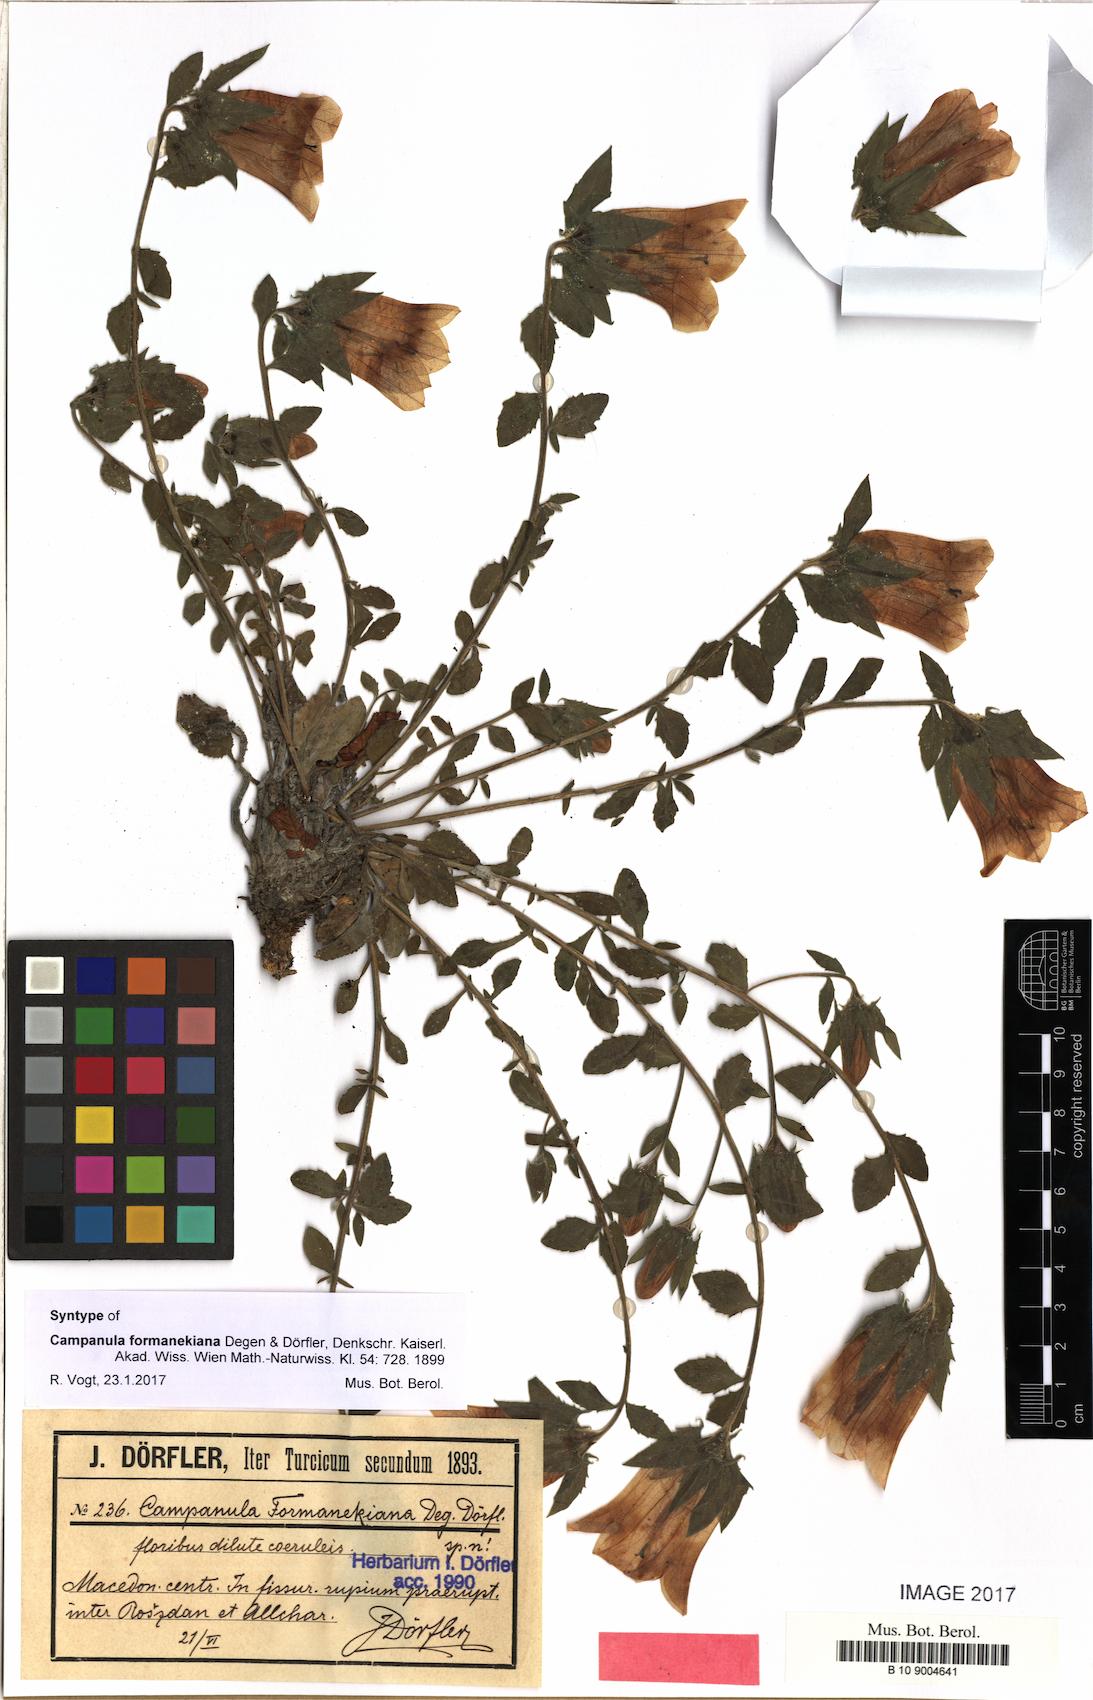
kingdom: Plantae
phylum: Tracheophyta
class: Magnoliopsida
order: Asterales
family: Campanulaceae
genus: Campanula
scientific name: Campanula formanekiana
